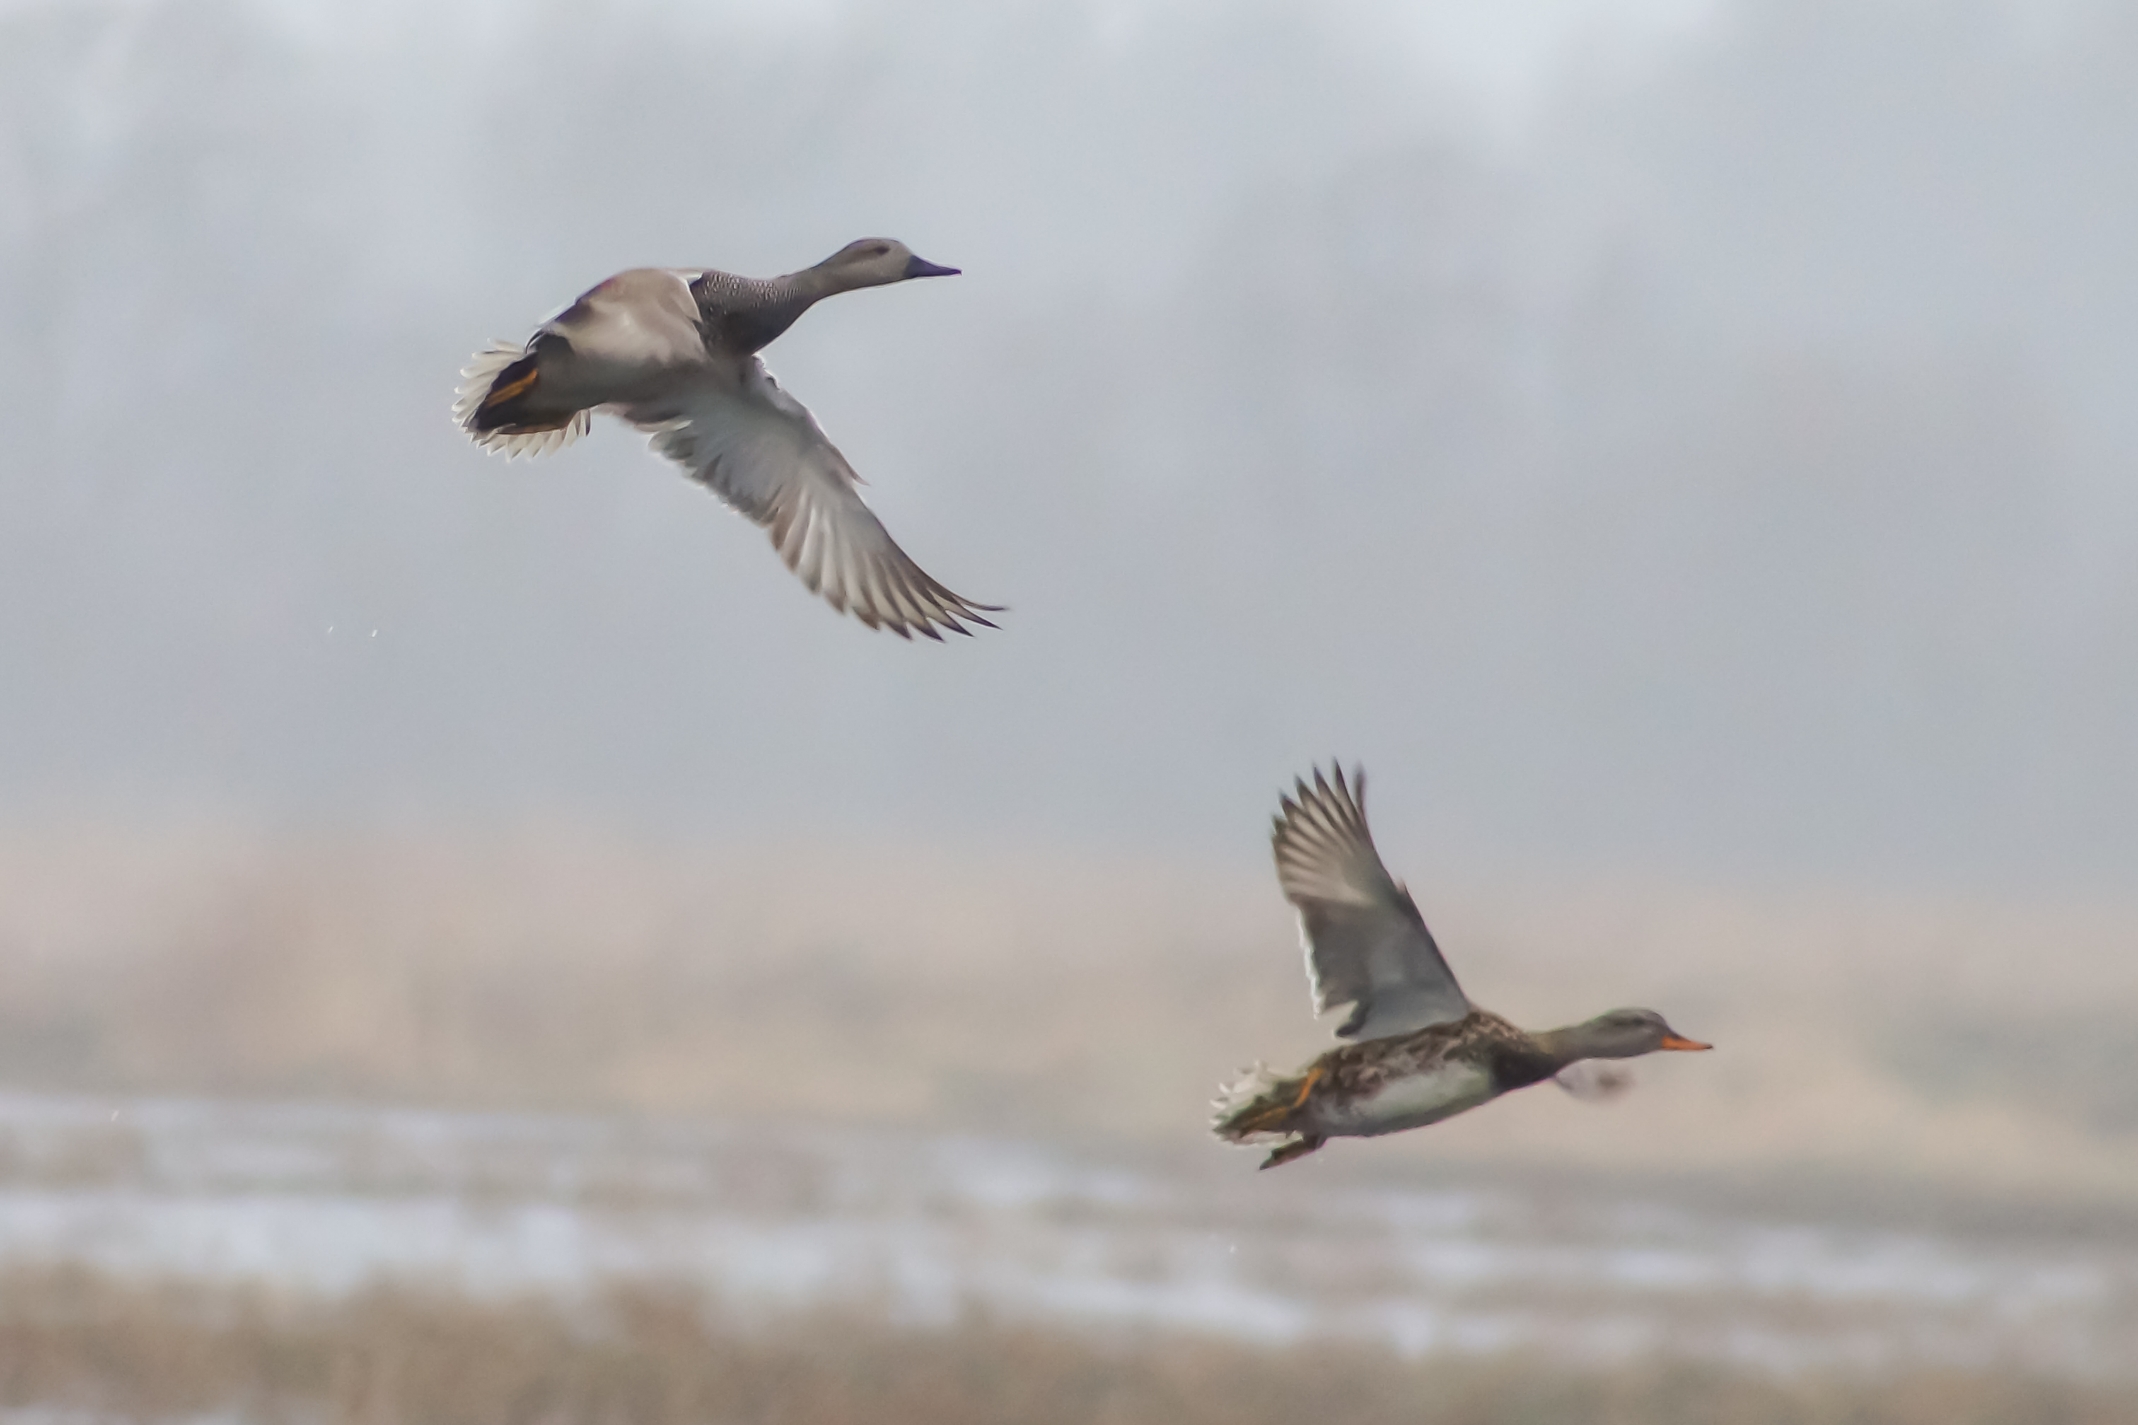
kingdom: Animalia
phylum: Chordata
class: Aves
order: Anseriformes
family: Anatidae
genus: Mareca
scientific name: Mareca strepera
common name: Knarand
